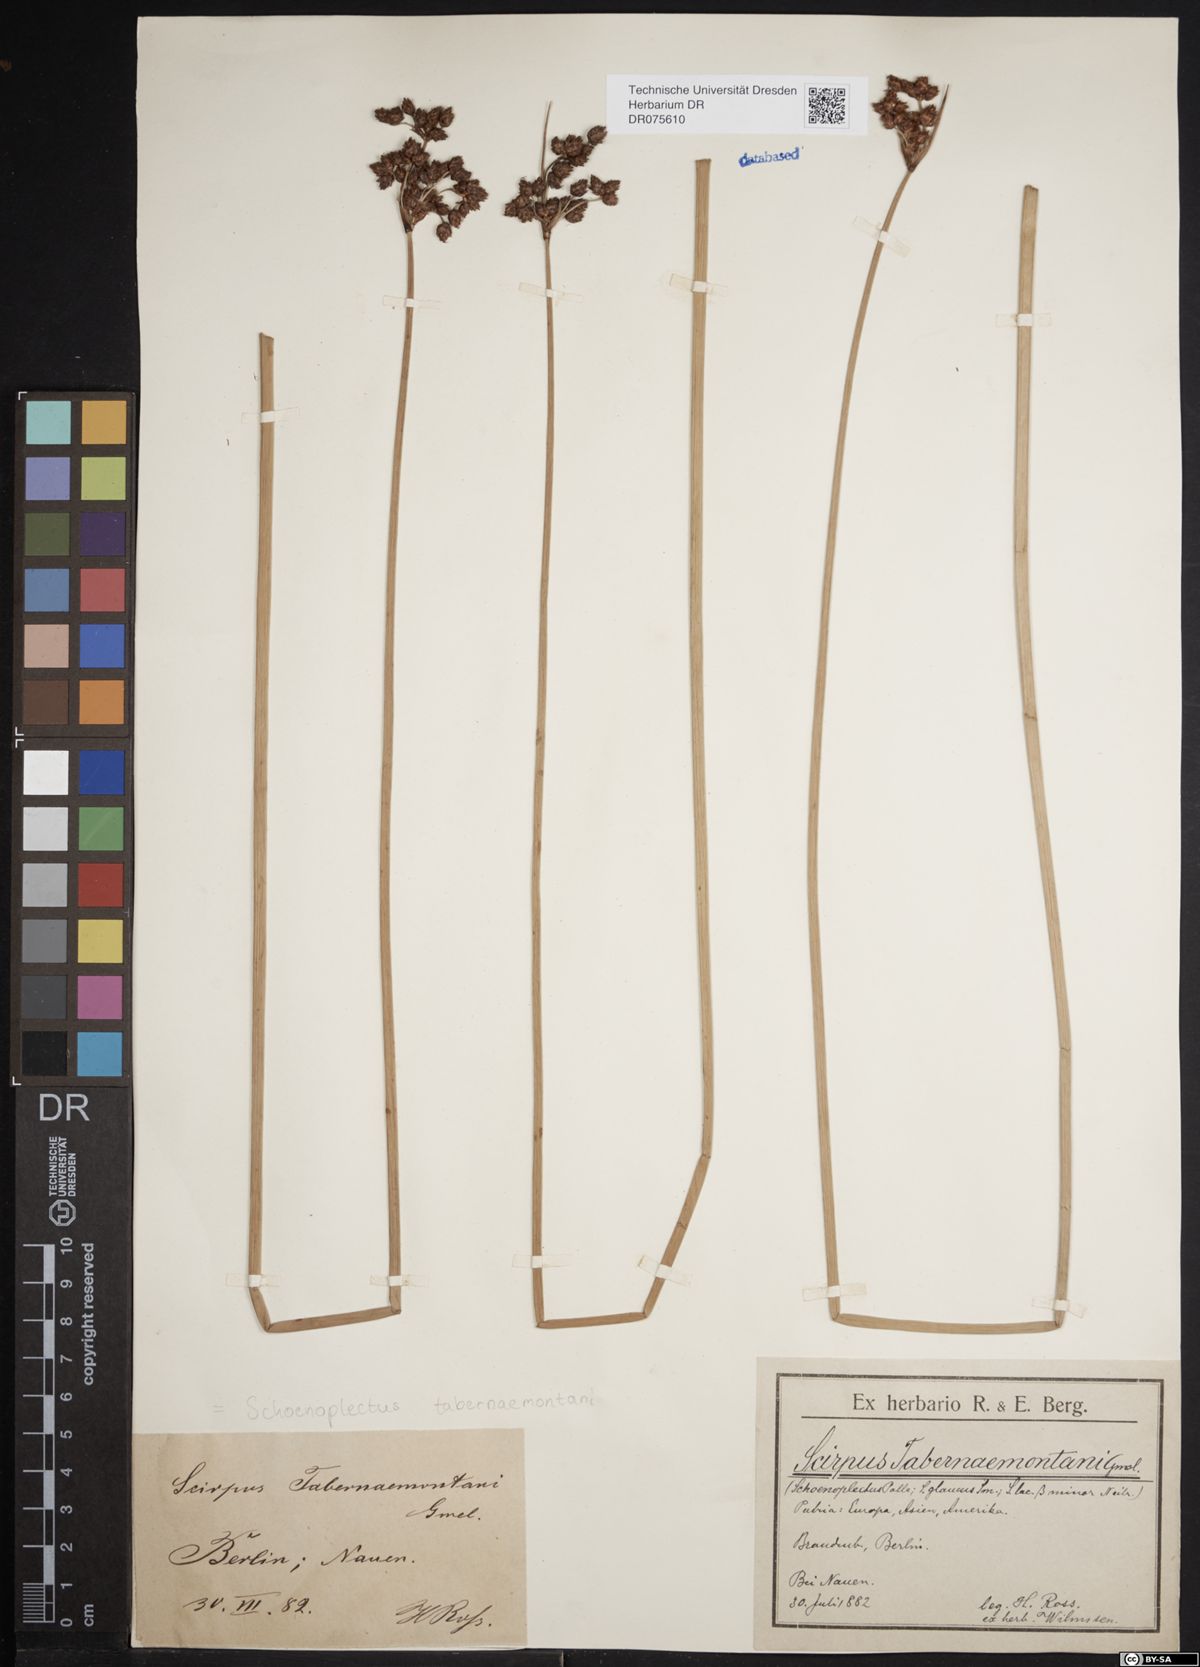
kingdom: Plantae
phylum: Tracheophyta
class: Liliopsida
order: Poales
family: Cyperaceae
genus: Schoenoplectus
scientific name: Schoenoplectus tabernaemontani
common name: Grey club-rush
